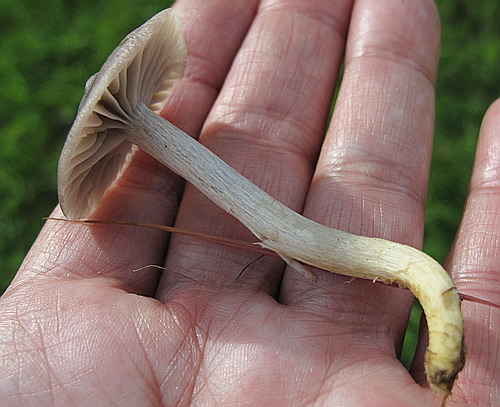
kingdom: Fungi
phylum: Basidiomycota
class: Agaricomycetes
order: Agaricales
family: Hygrophoraceae
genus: Cuphophyllus
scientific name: Cuphophyllus flavipes
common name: gulfodet vokshat
